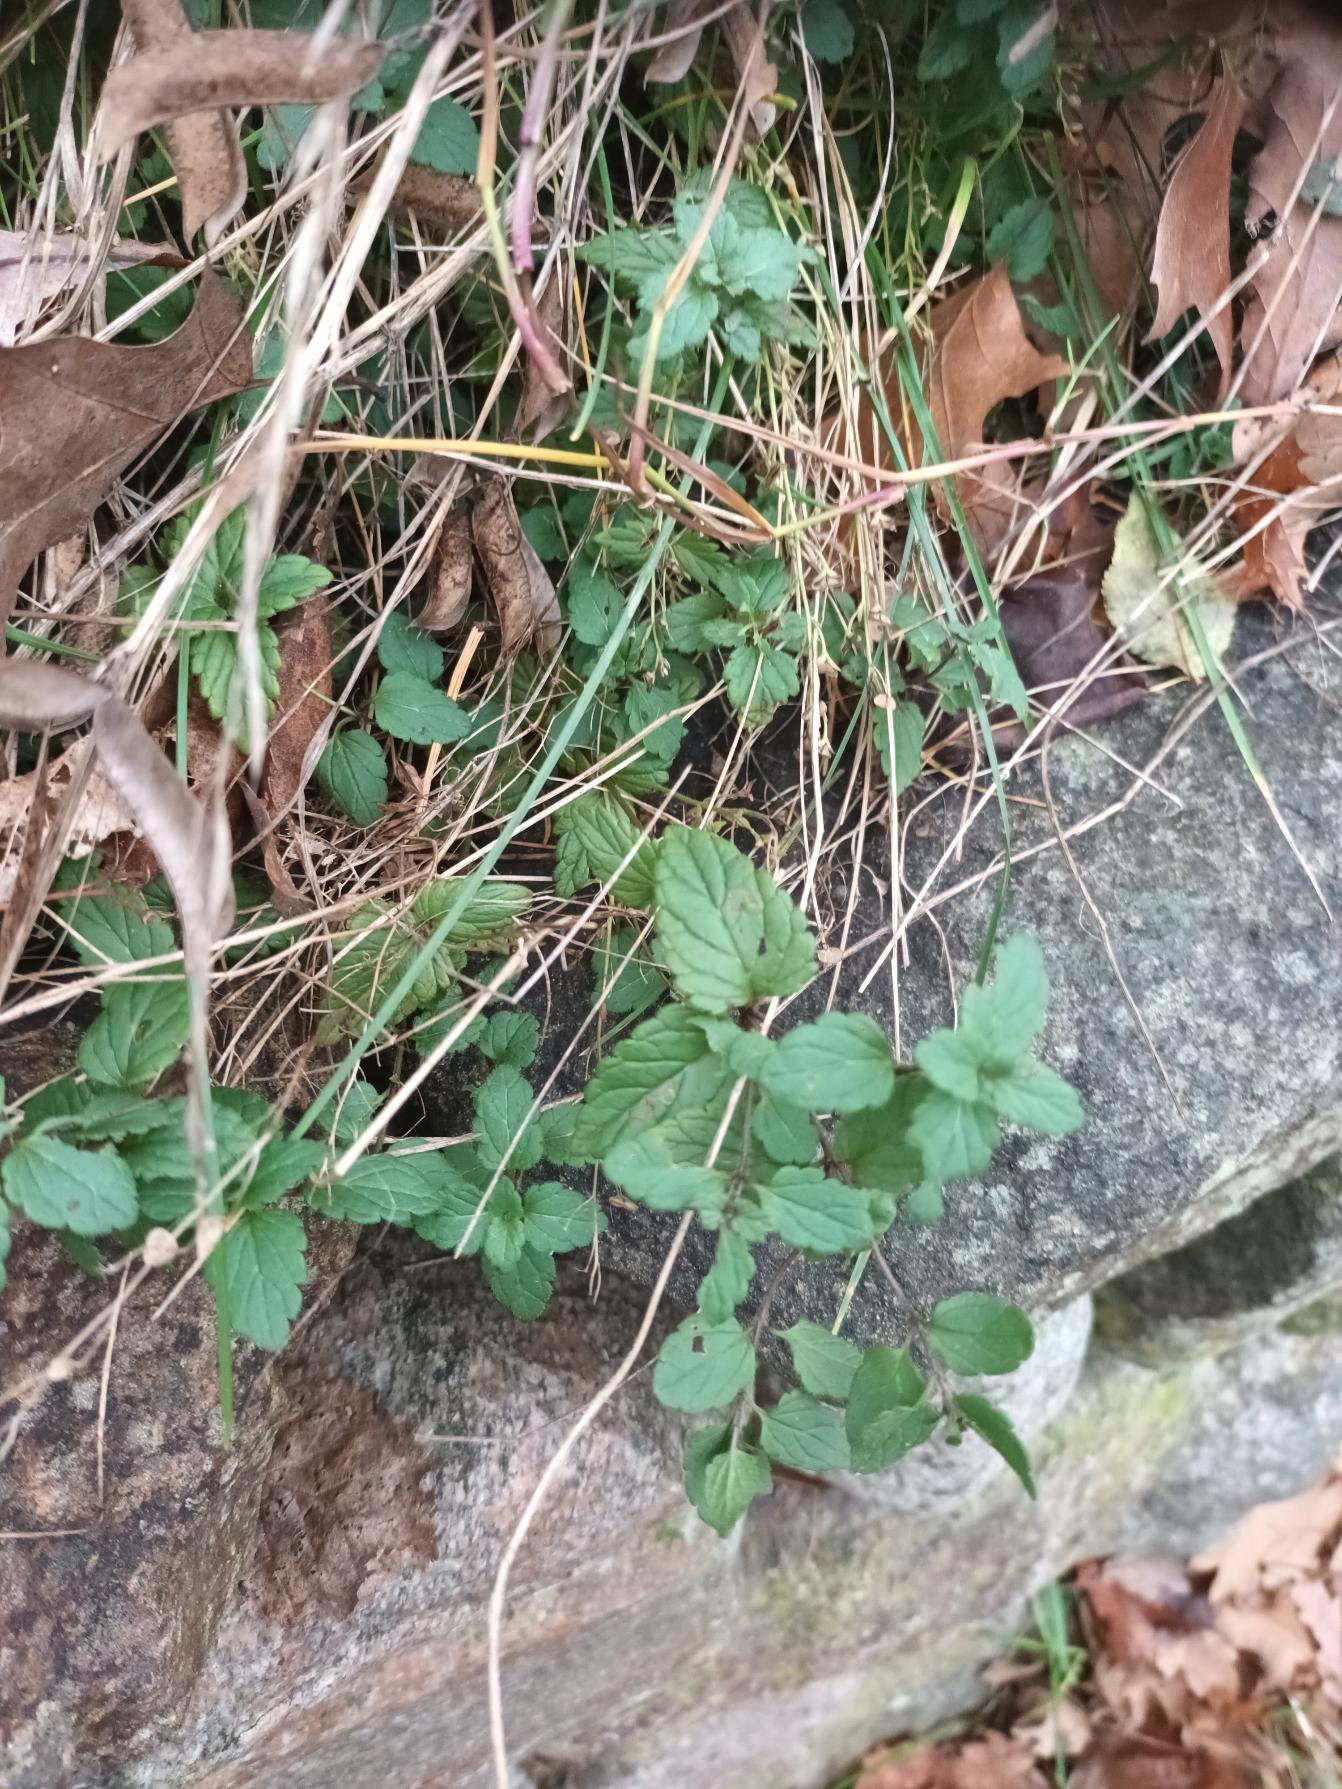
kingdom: Plantae
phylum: Tracheophyta
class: Magnoliopsida
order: Lamiales
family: Plantaginaceae
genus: Veronica
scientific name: Veronica chamaedrys
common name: Tveskægget ærenpris
